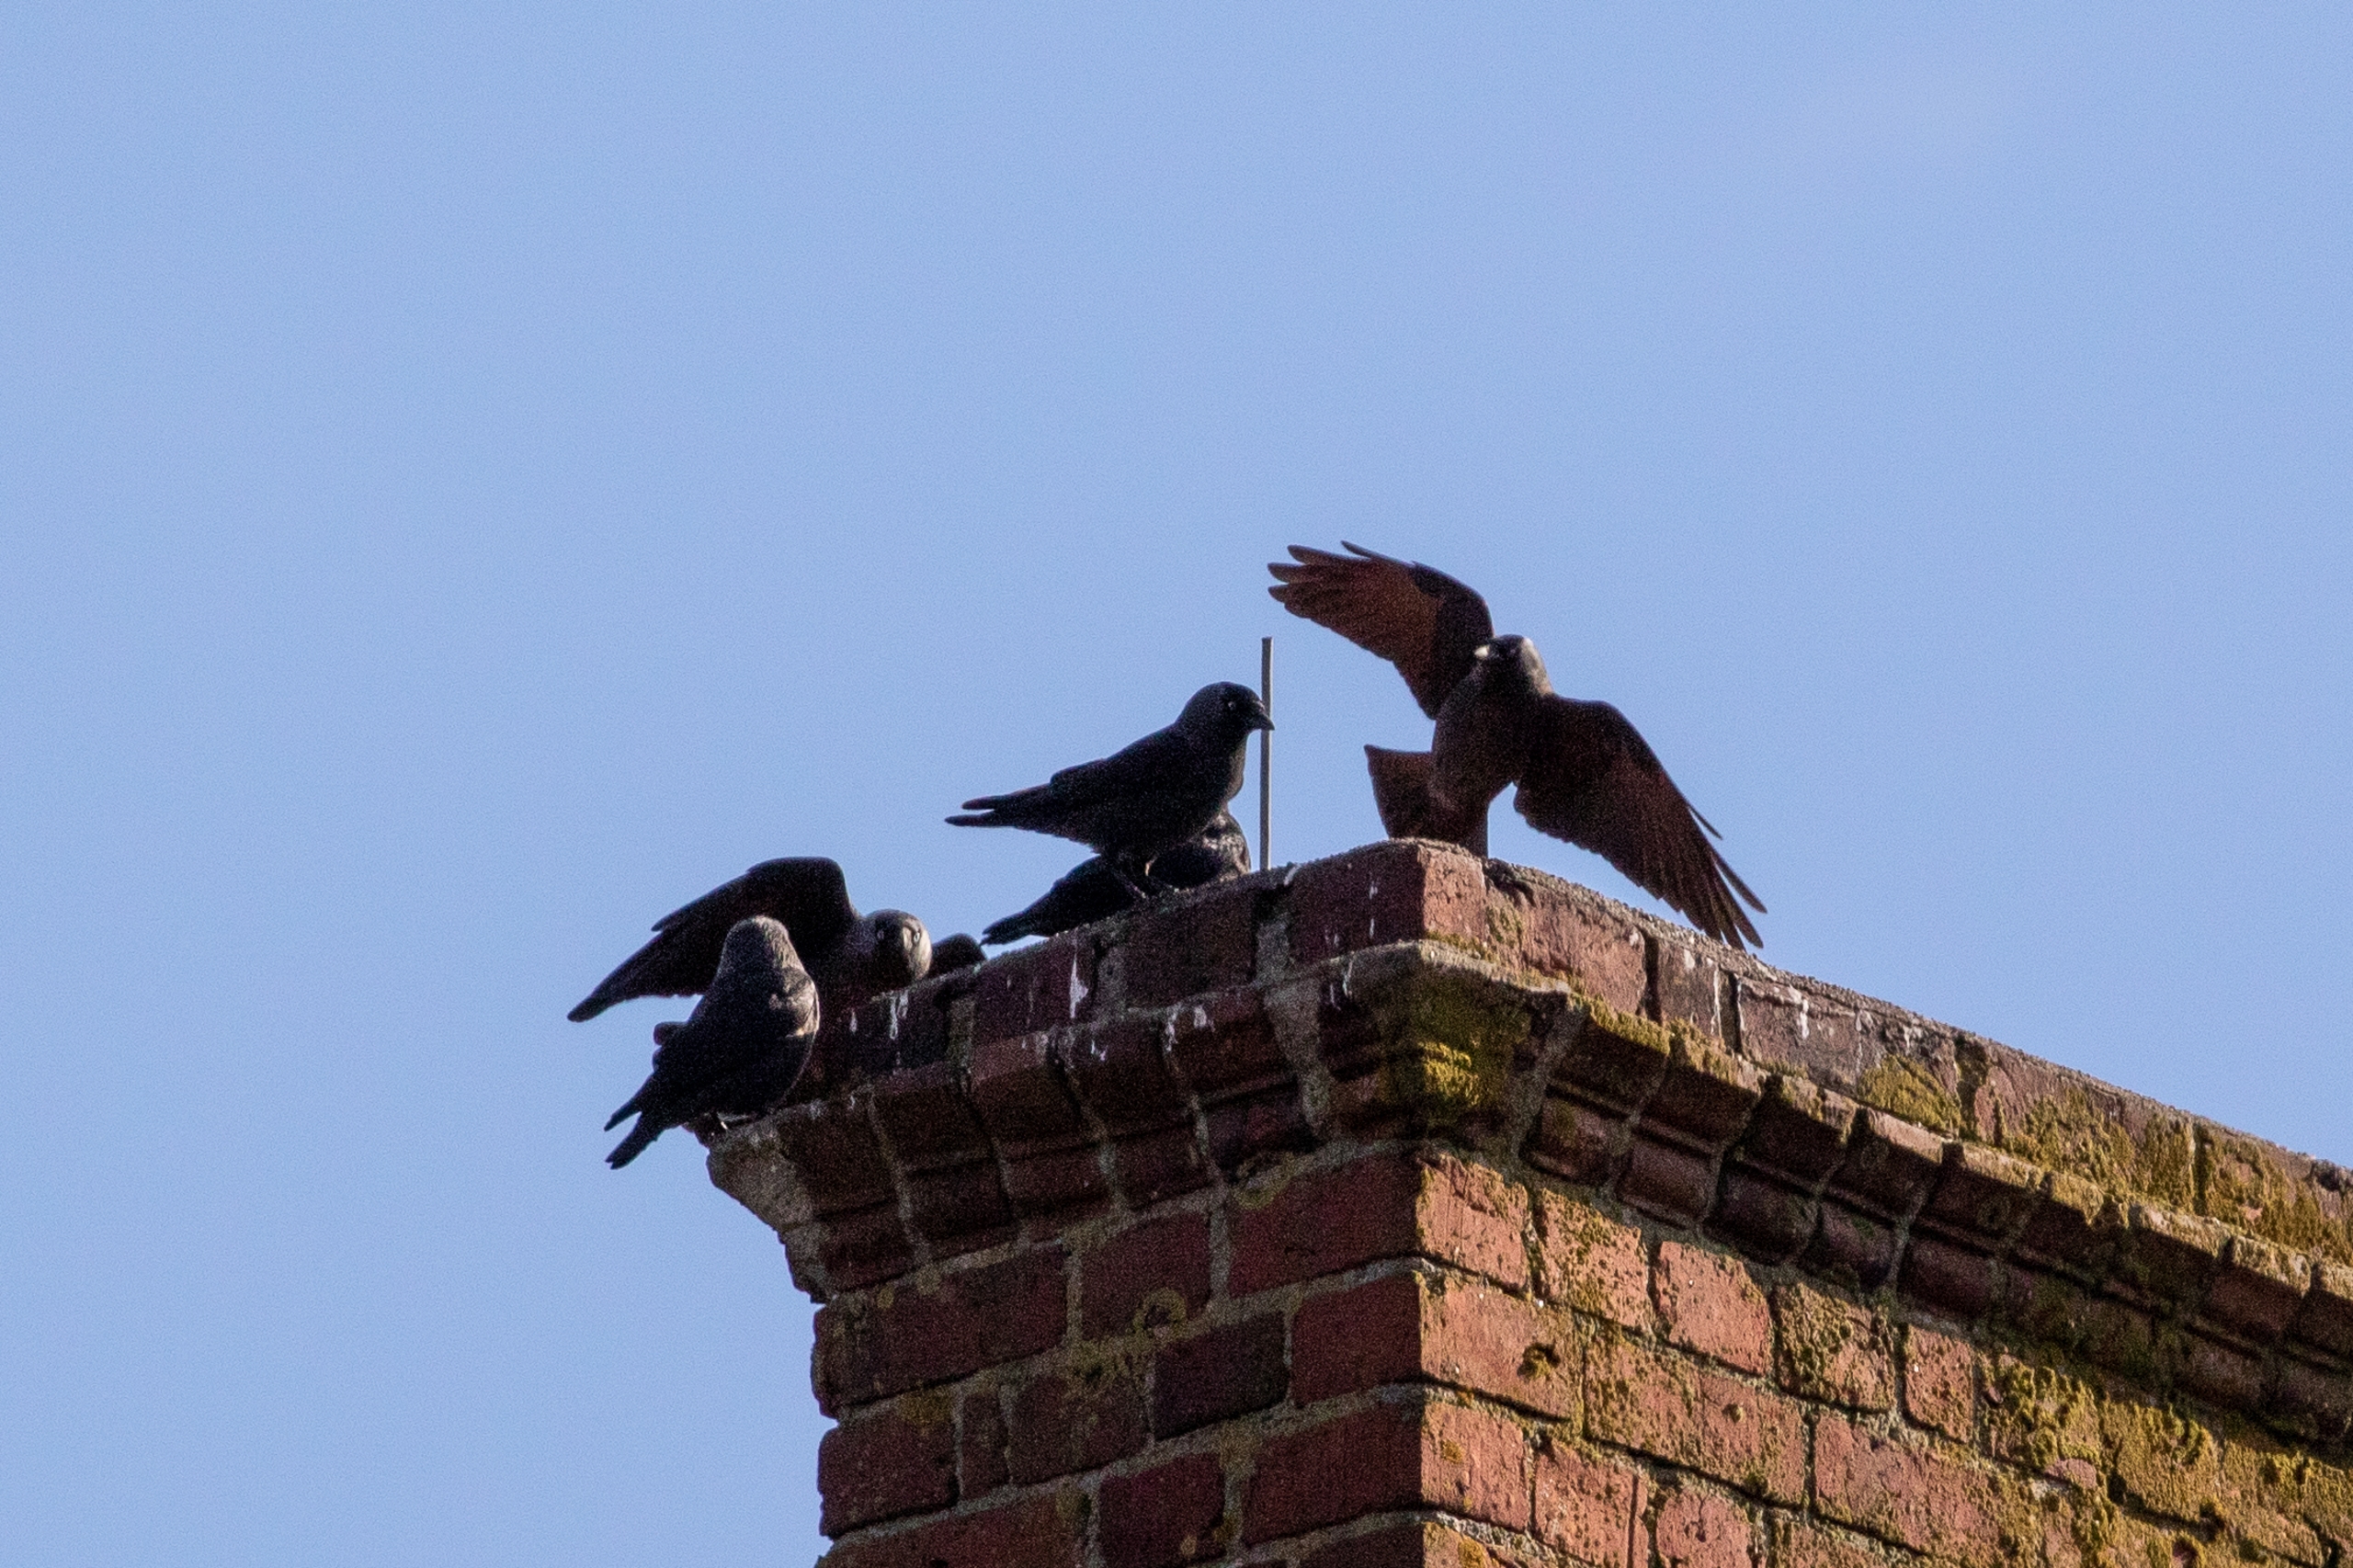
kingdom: Animalia
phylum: Chordata
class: Aves
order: Passeriformes
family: Corvidae
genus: Coloeus
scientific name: Coloeus monedula
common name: Allike
